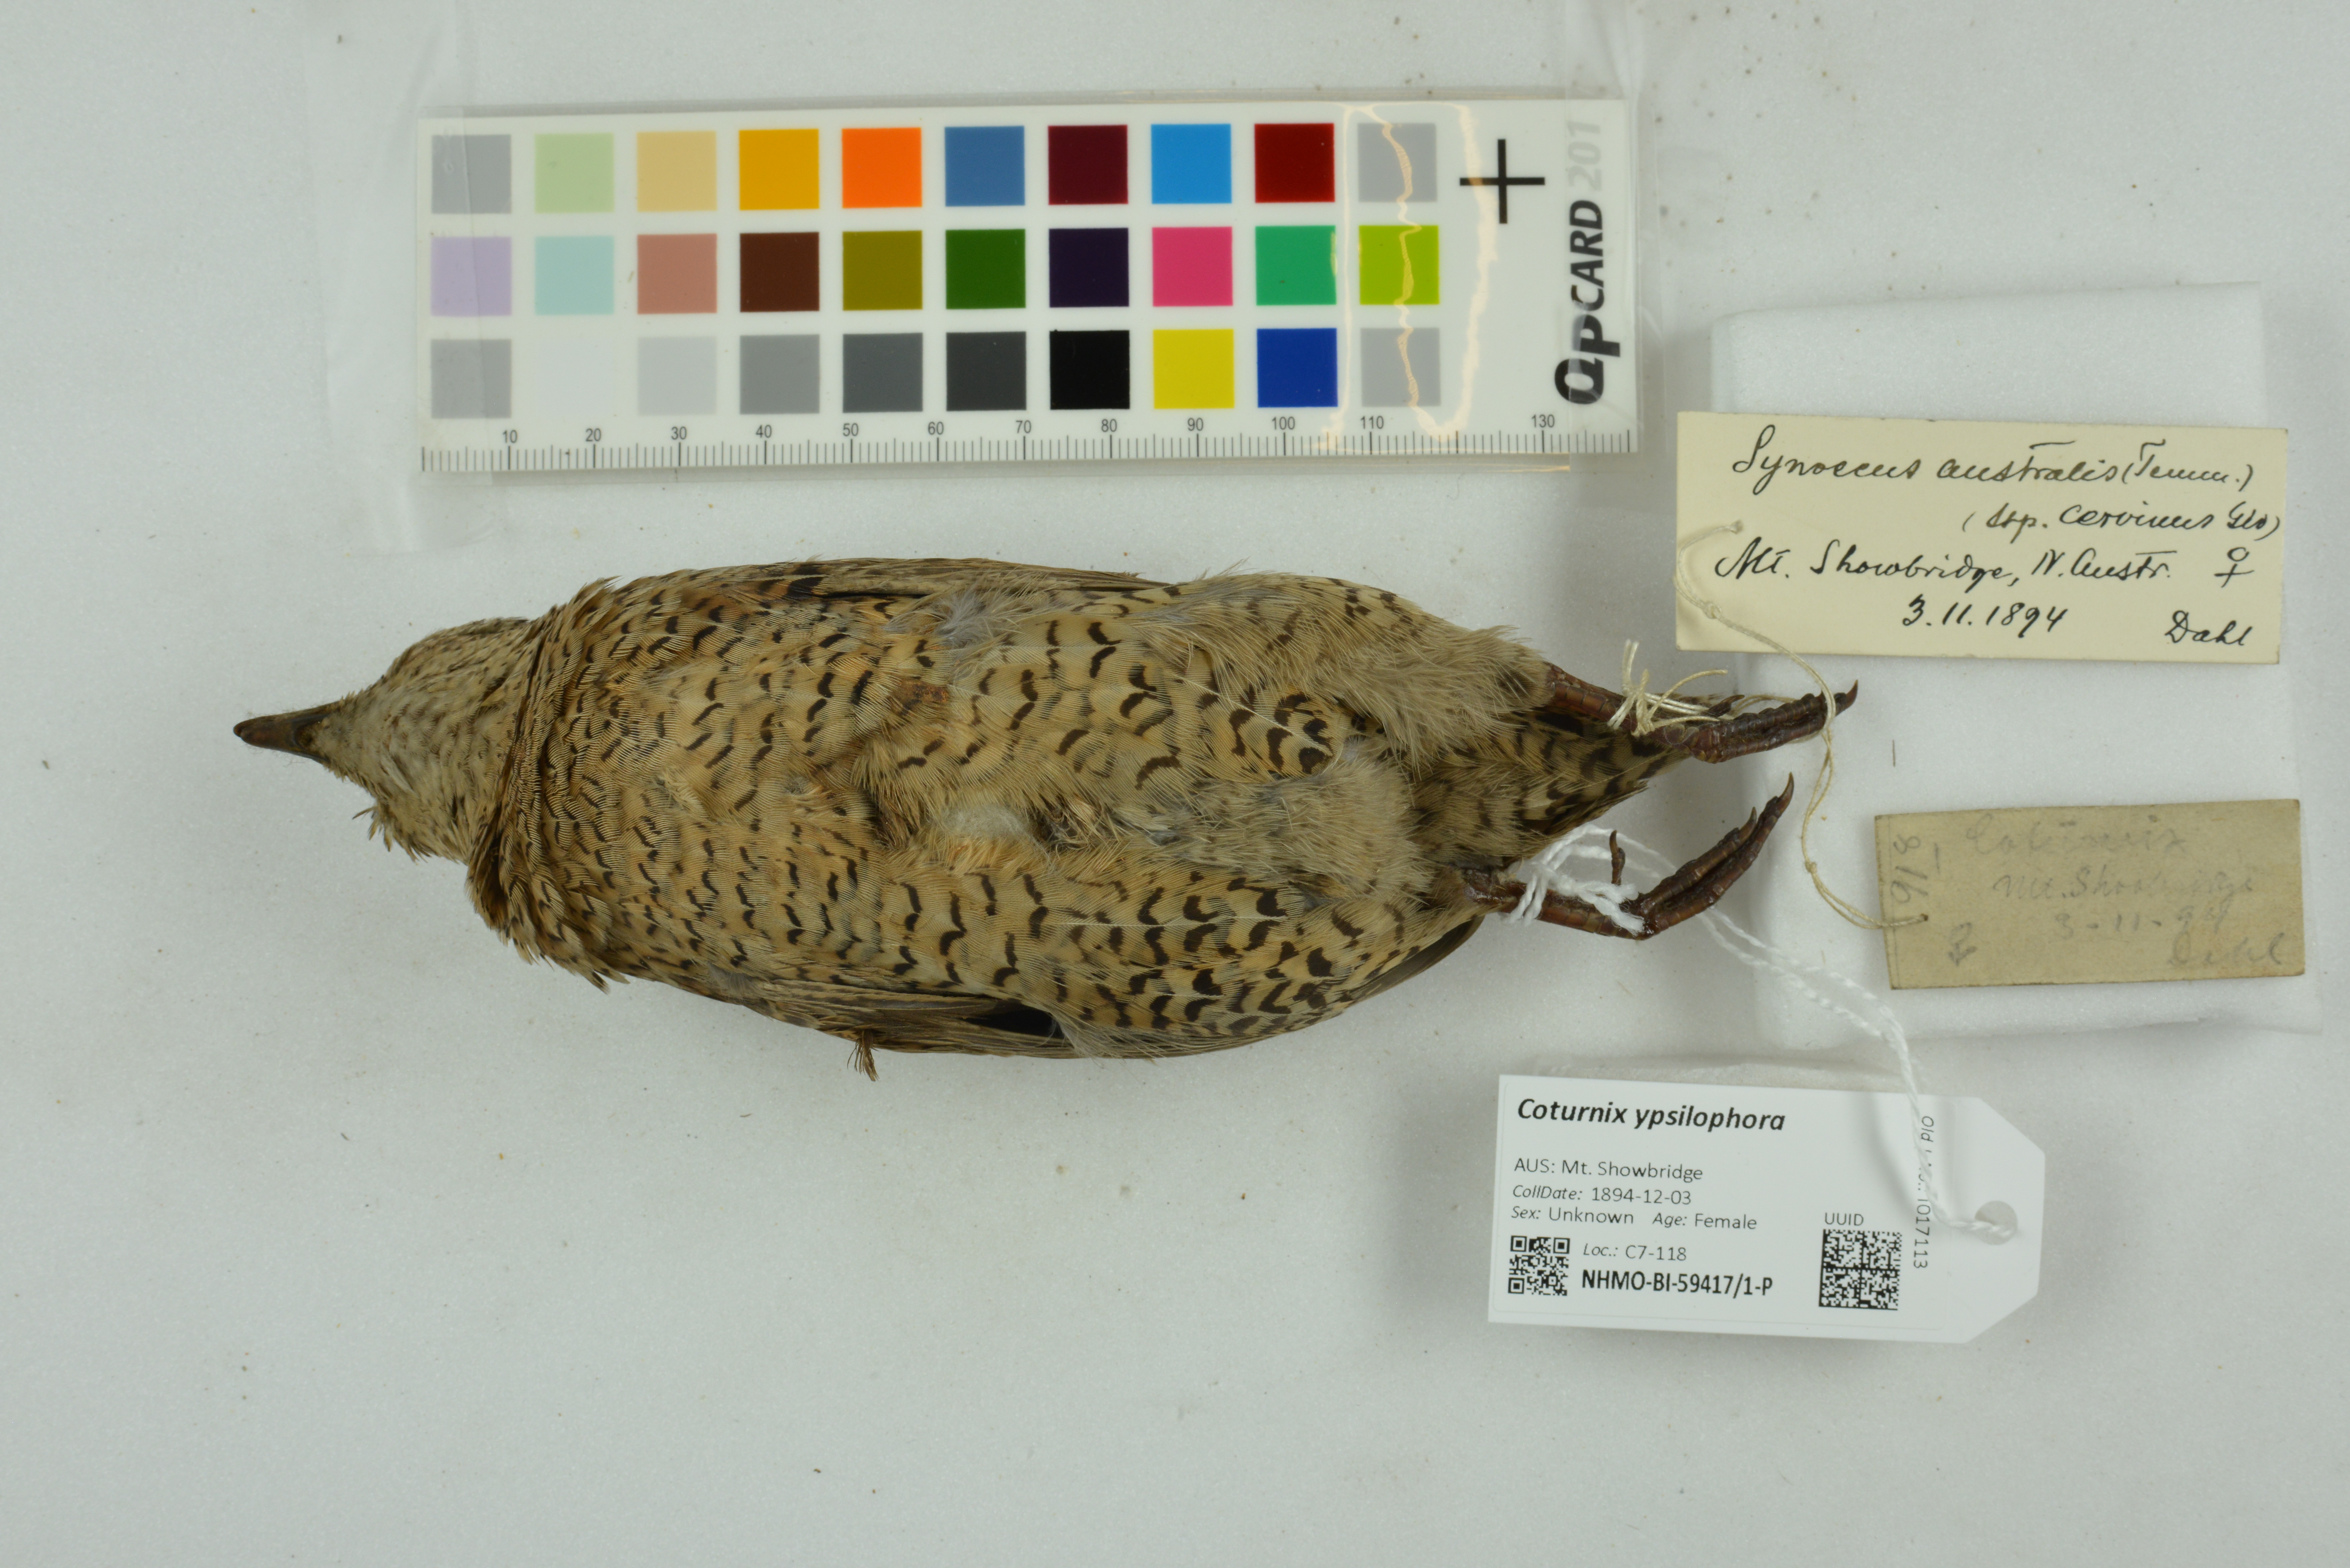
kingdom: Animalia
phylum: Chordata
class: Aves
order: Galliformes
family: Phasianidae
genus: Synoicus
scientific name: Synoicus ypsilophorus
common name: Brown quail
